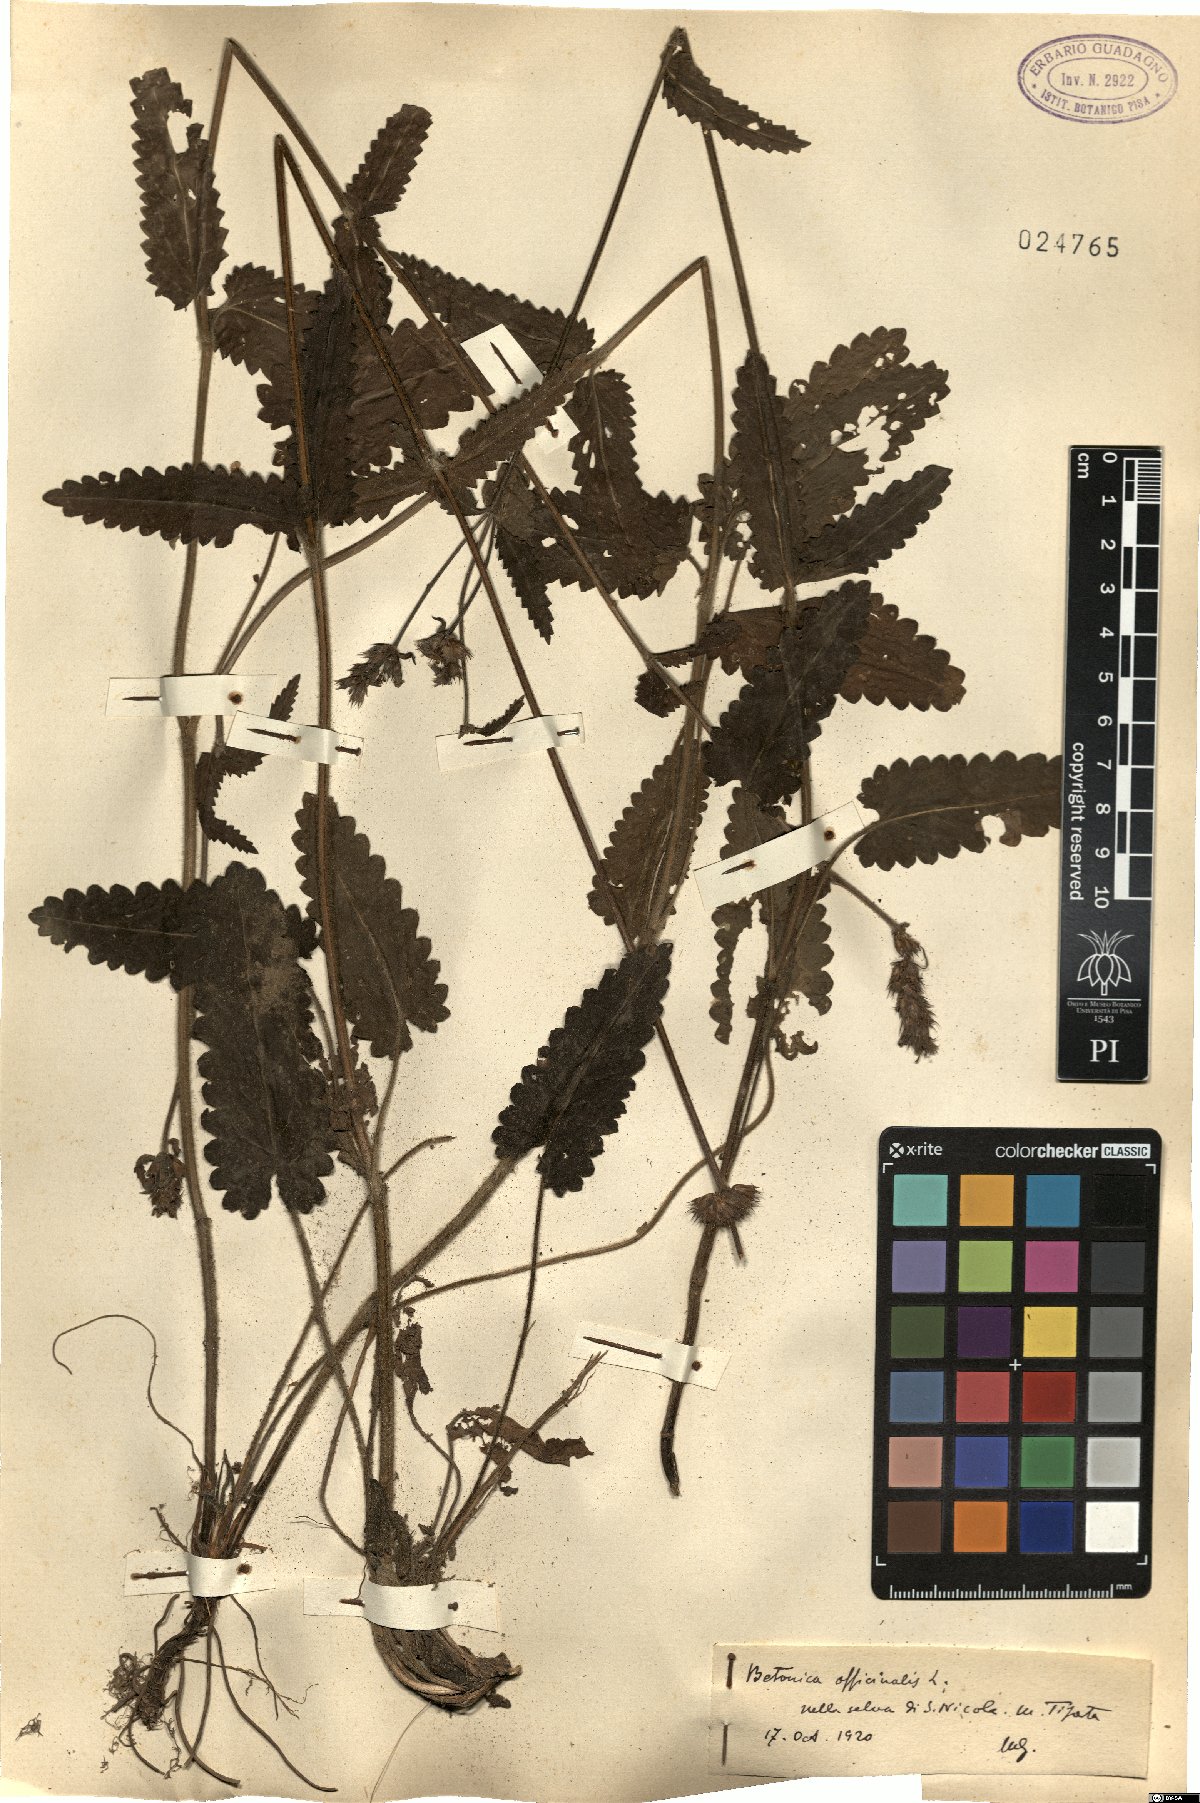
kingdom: Plantae
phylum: Tracheophyta
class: Magnoliopsida
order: Lamiales
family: Lamiaceae
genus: Betonica
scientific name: Betonica officinalis
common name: Bishop's-wort
